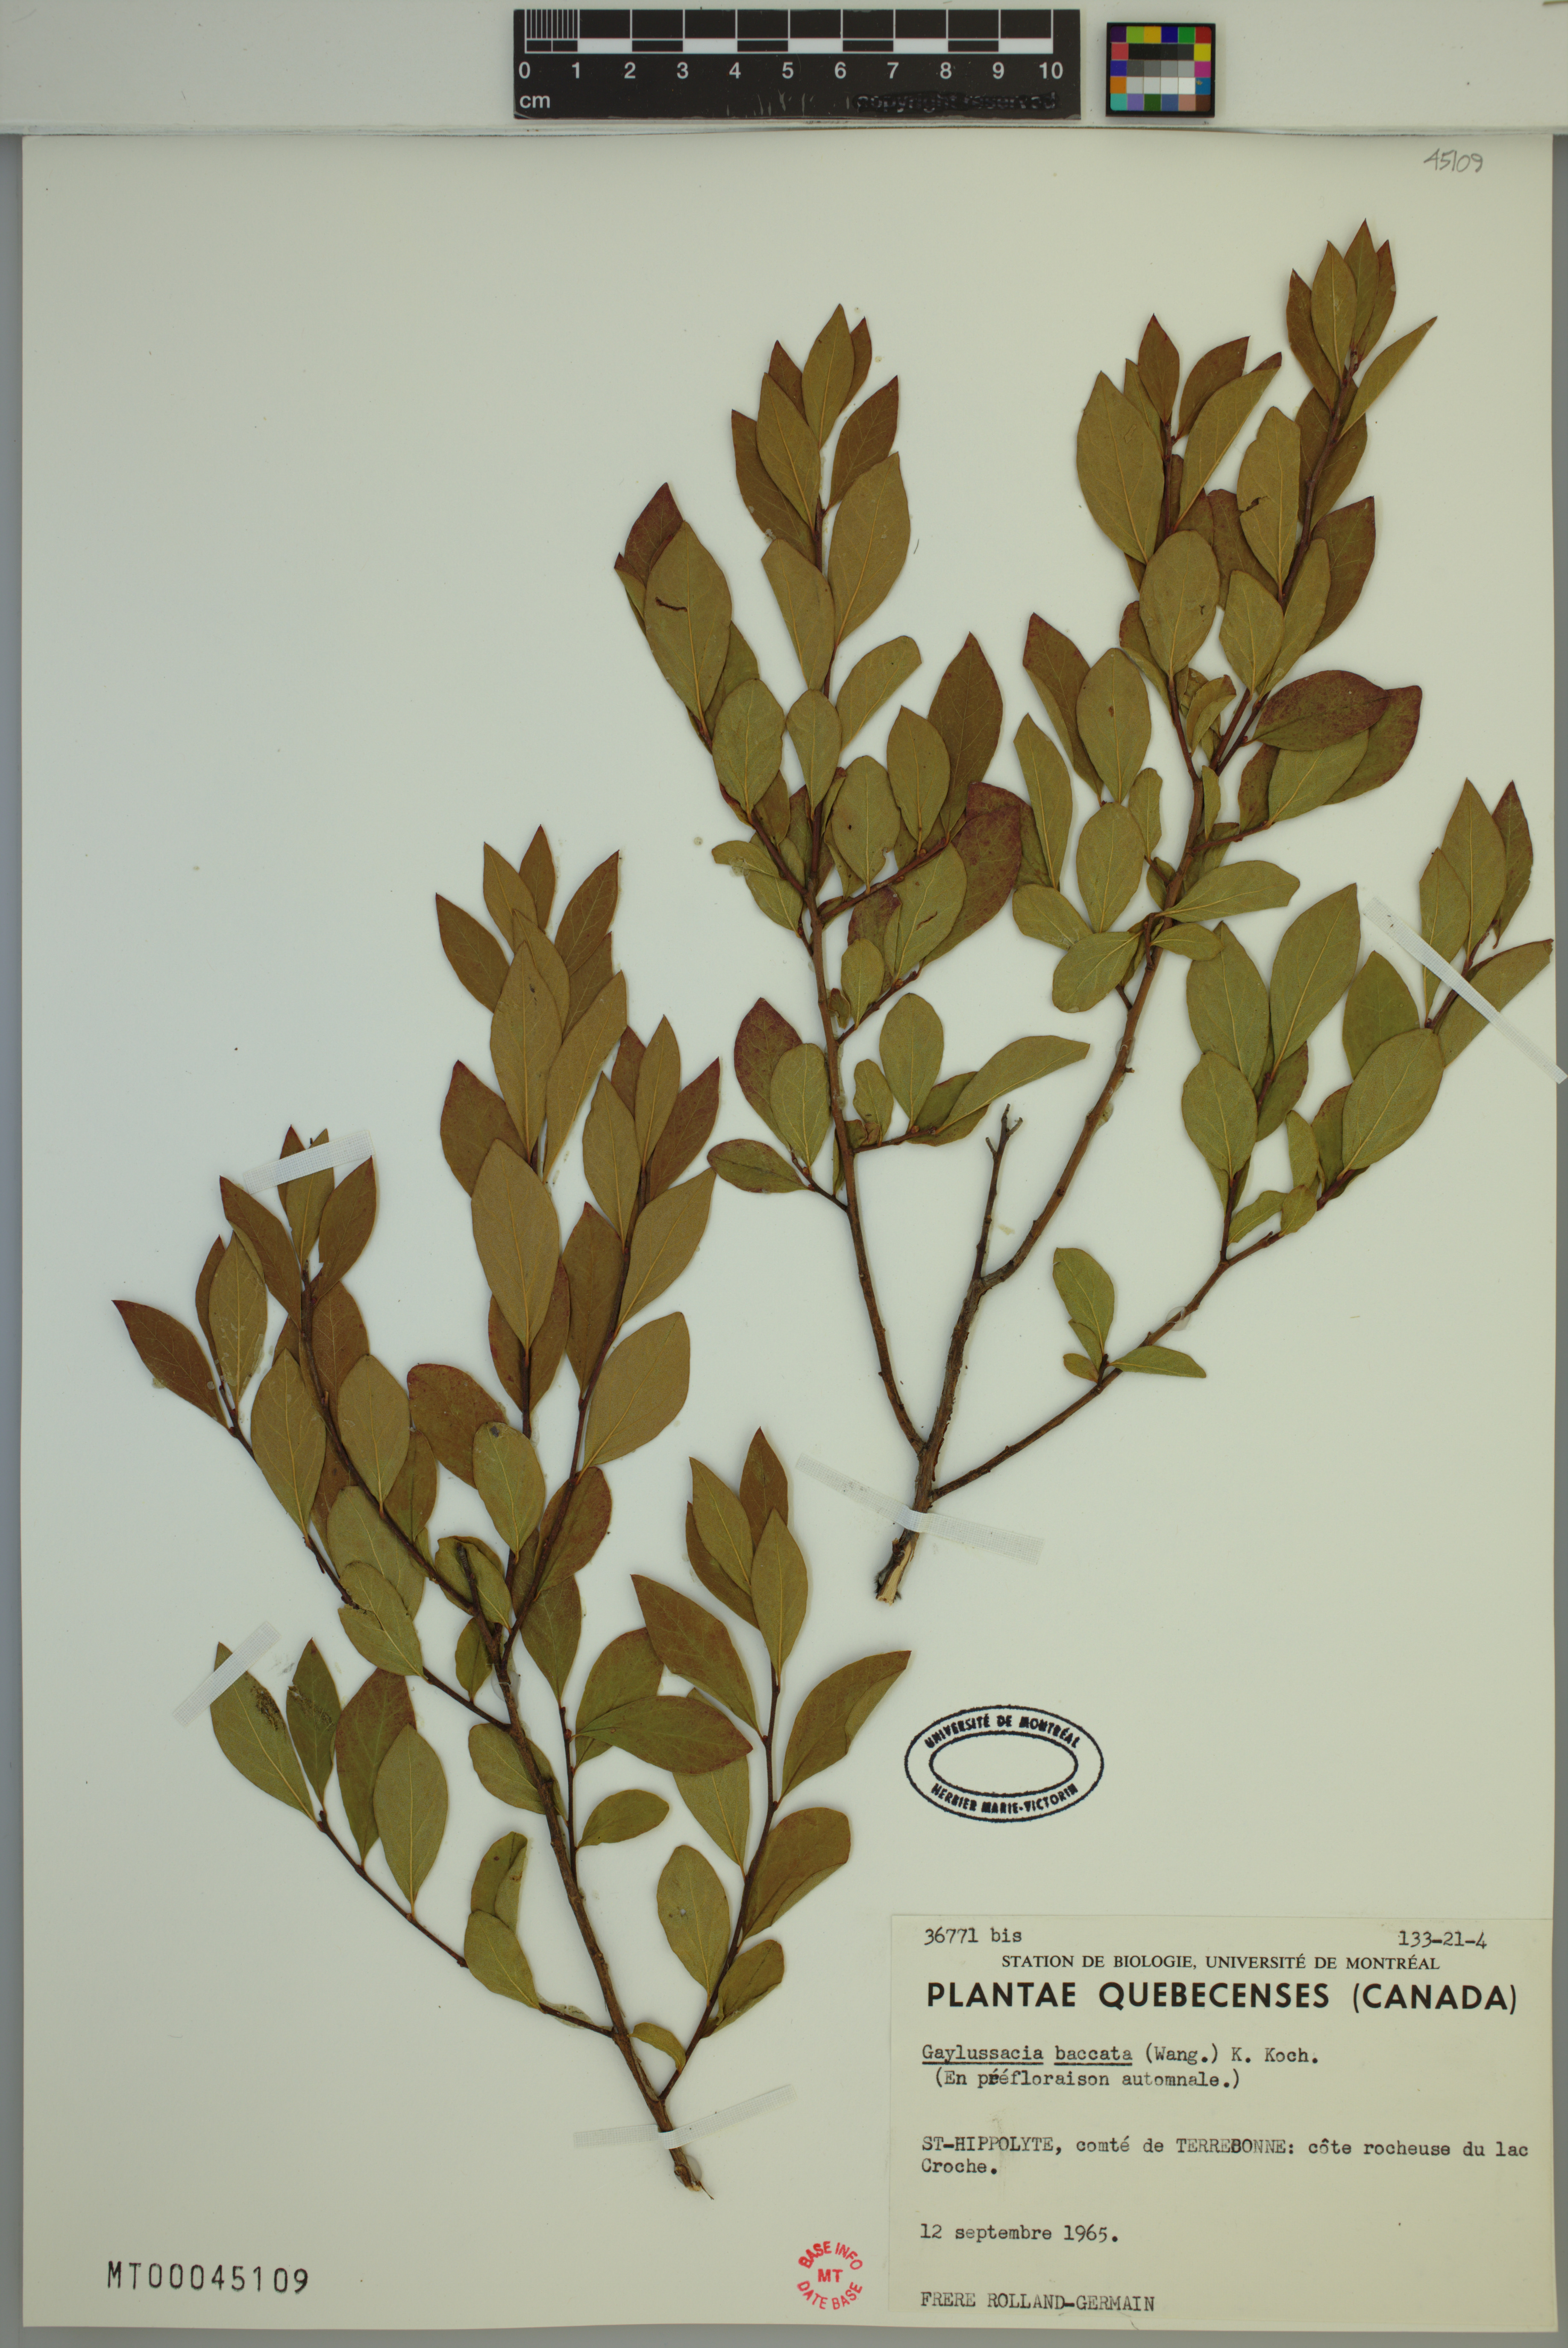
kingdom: Plantae
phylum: Tracheophyta
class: Magnoliopsida
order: Ericales
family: Ericaceae
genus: Gaylussacia
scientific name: Gaylussacia baccata
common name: Black huckleberry
